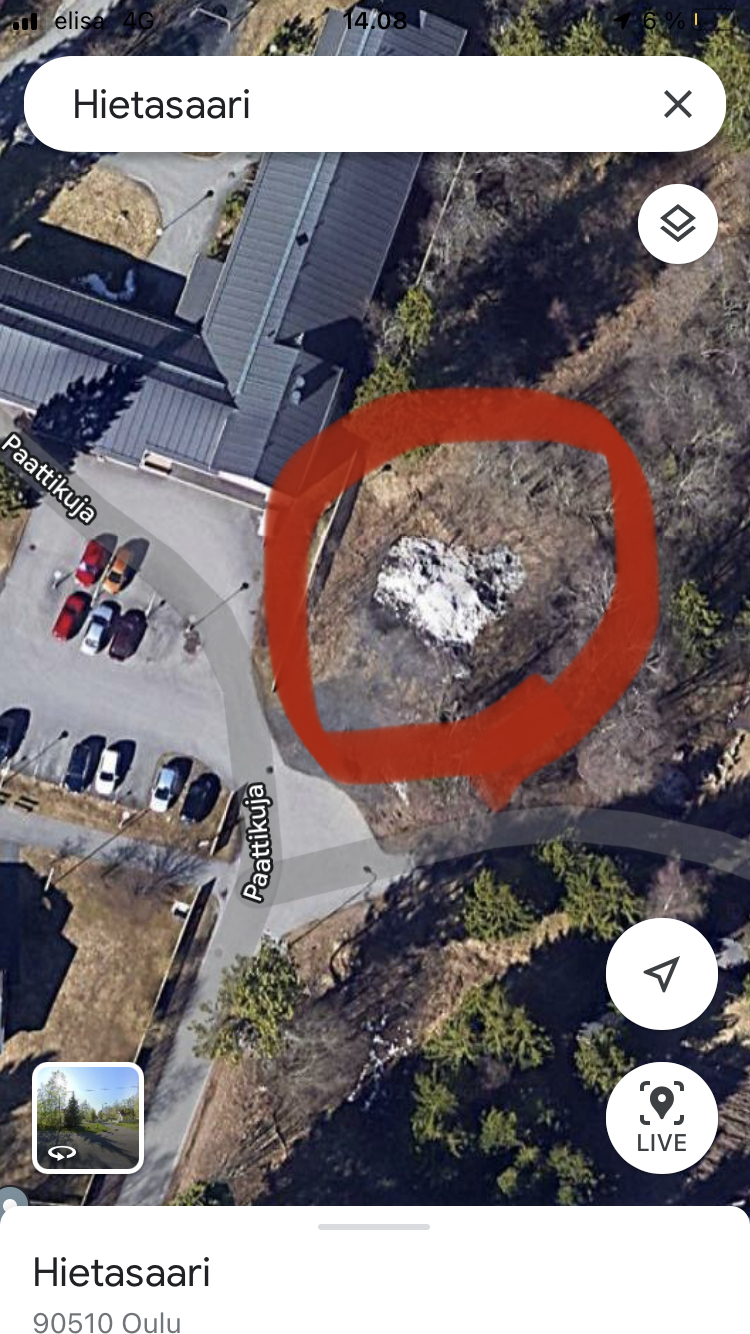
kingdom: Plantae
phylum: Tracheophyta
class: Magnoliopsida
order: Asterales
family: Asteraceae
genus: Petasites
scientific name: Petasites hybridus
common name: Butterbur
